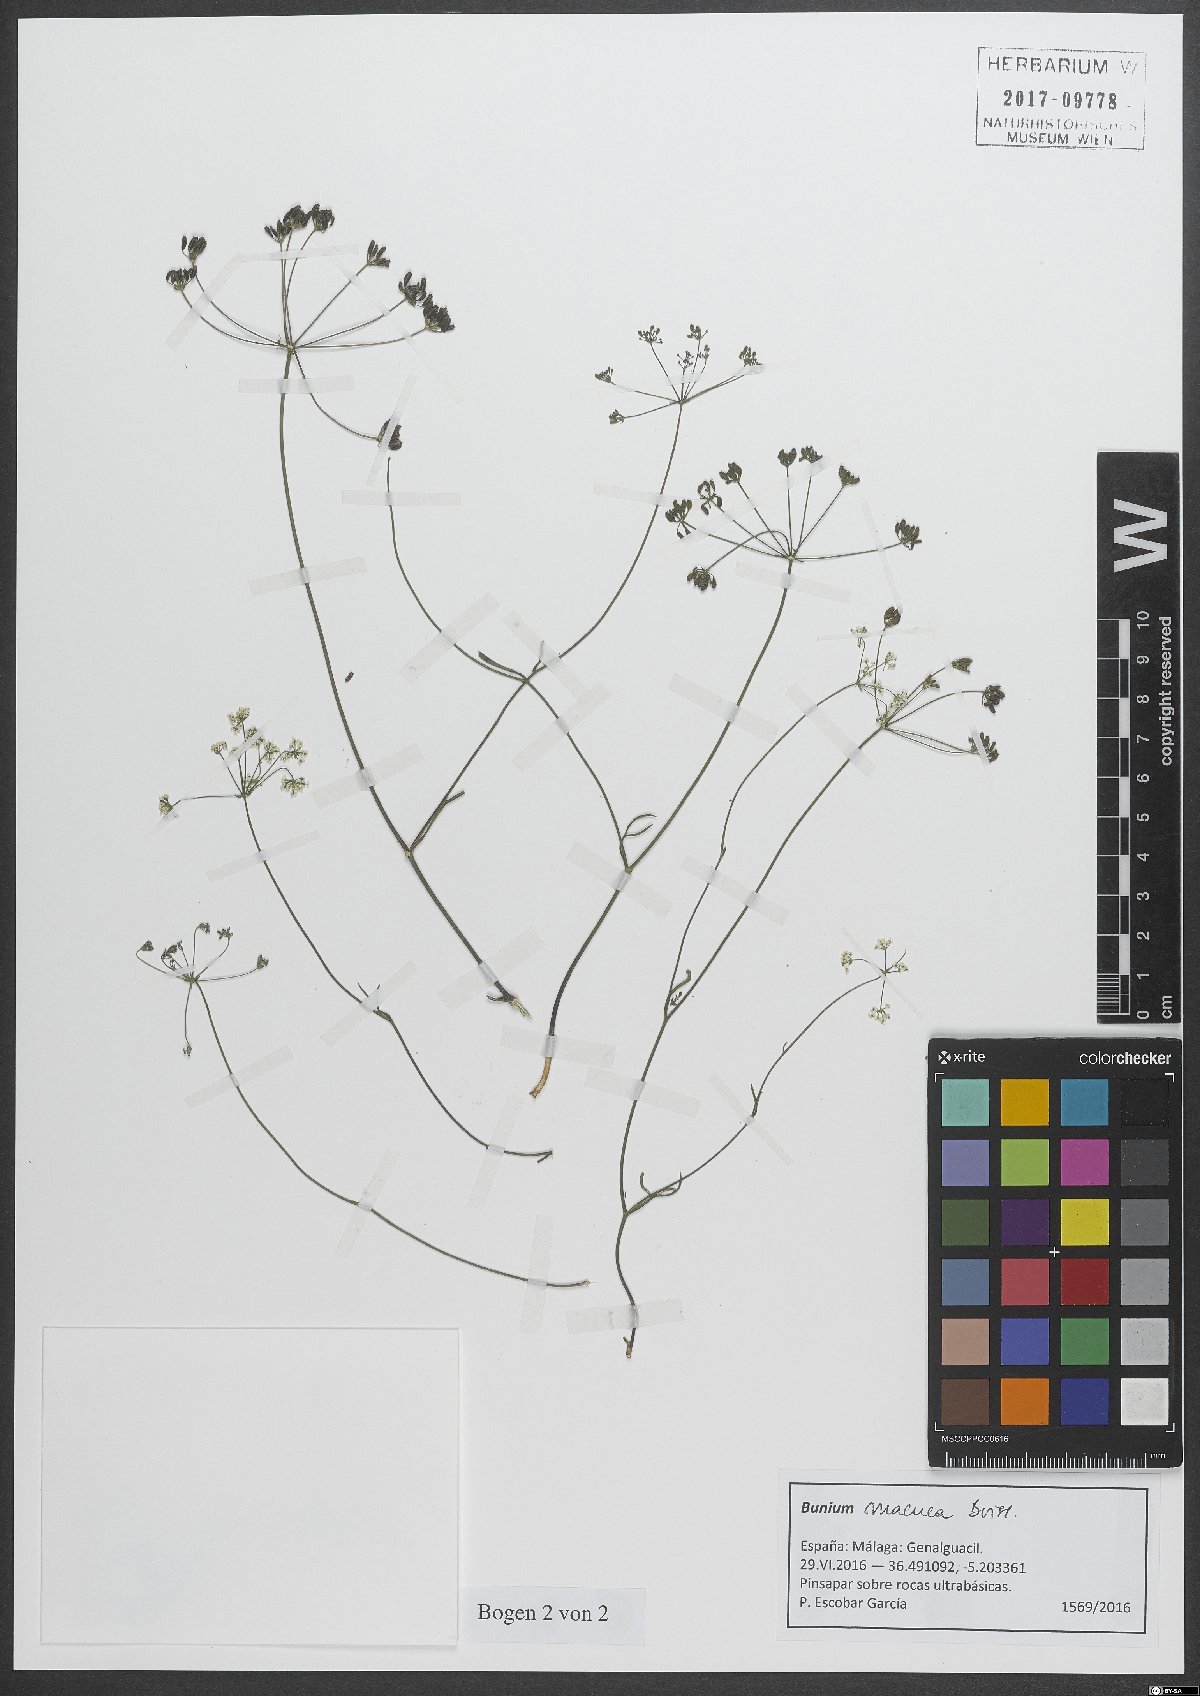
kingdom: Plantae
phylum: Tracheophyta
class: Magnoliopsida
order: Apiales
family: Apiaceae
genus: Bunium
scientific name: Bunium macuca
